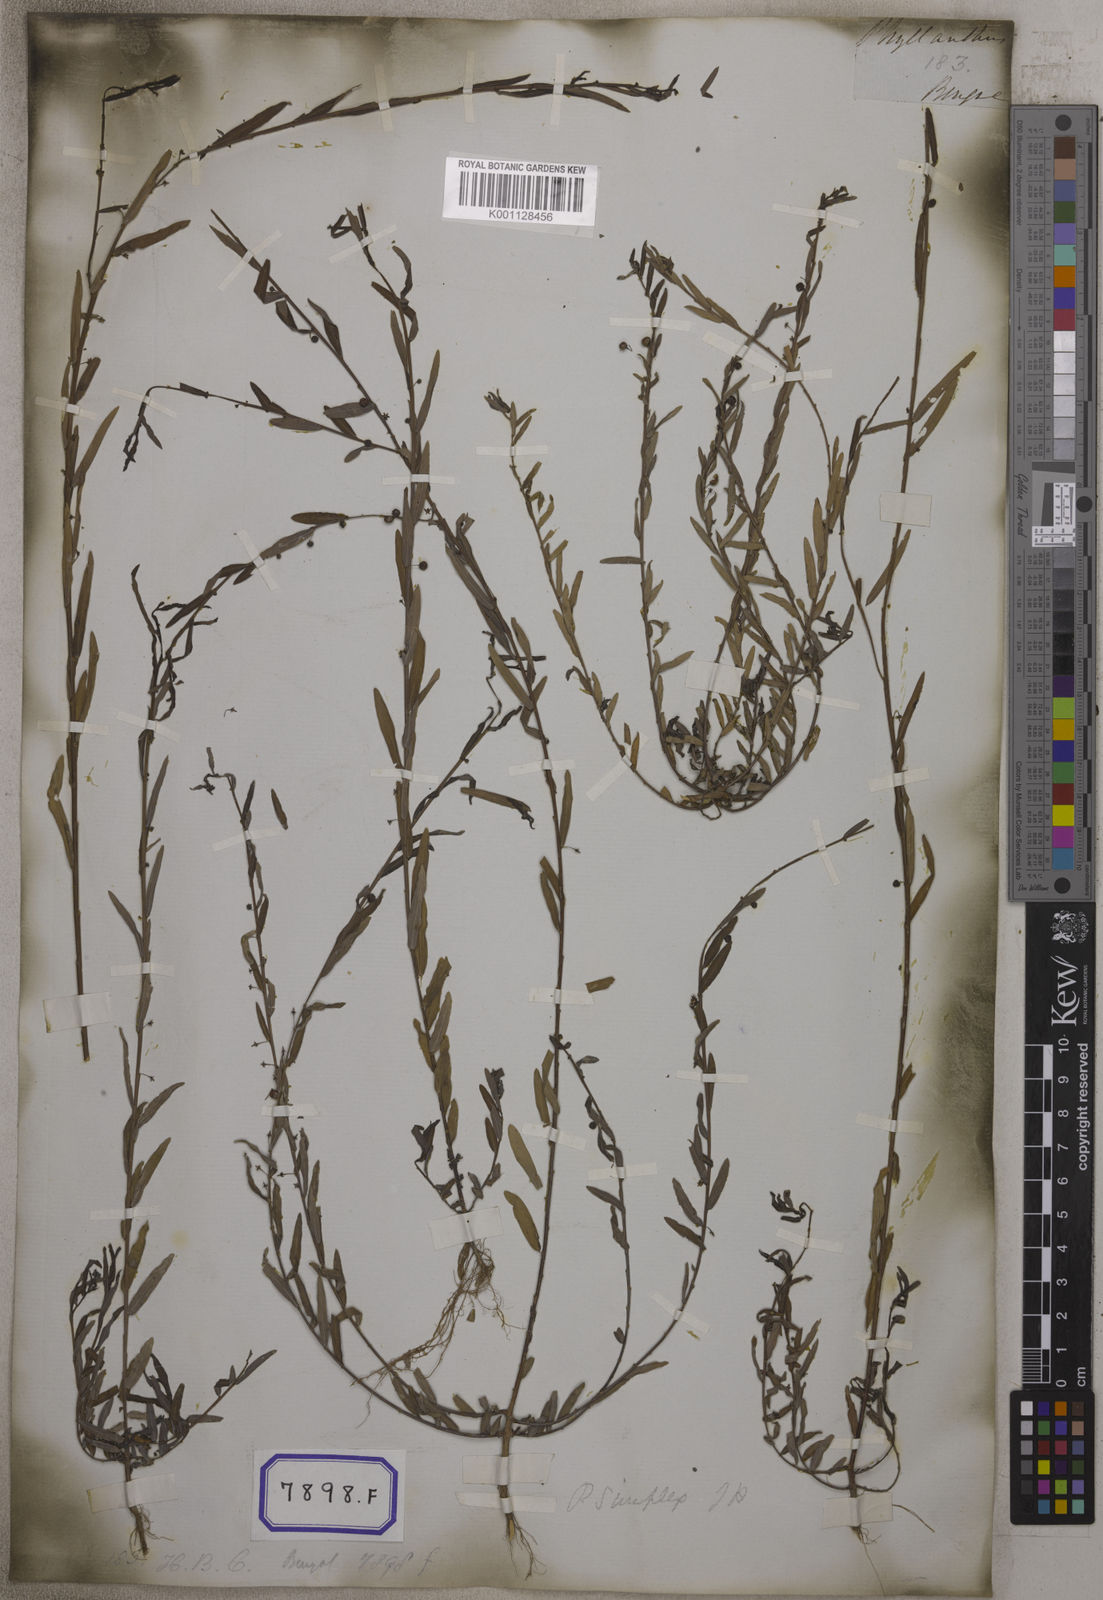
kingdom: Plantae
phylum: Tracheophyta
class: Magnoliopsida
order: Malpighiales
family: Euphorbiaceae
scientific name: Euphorbiaceae
